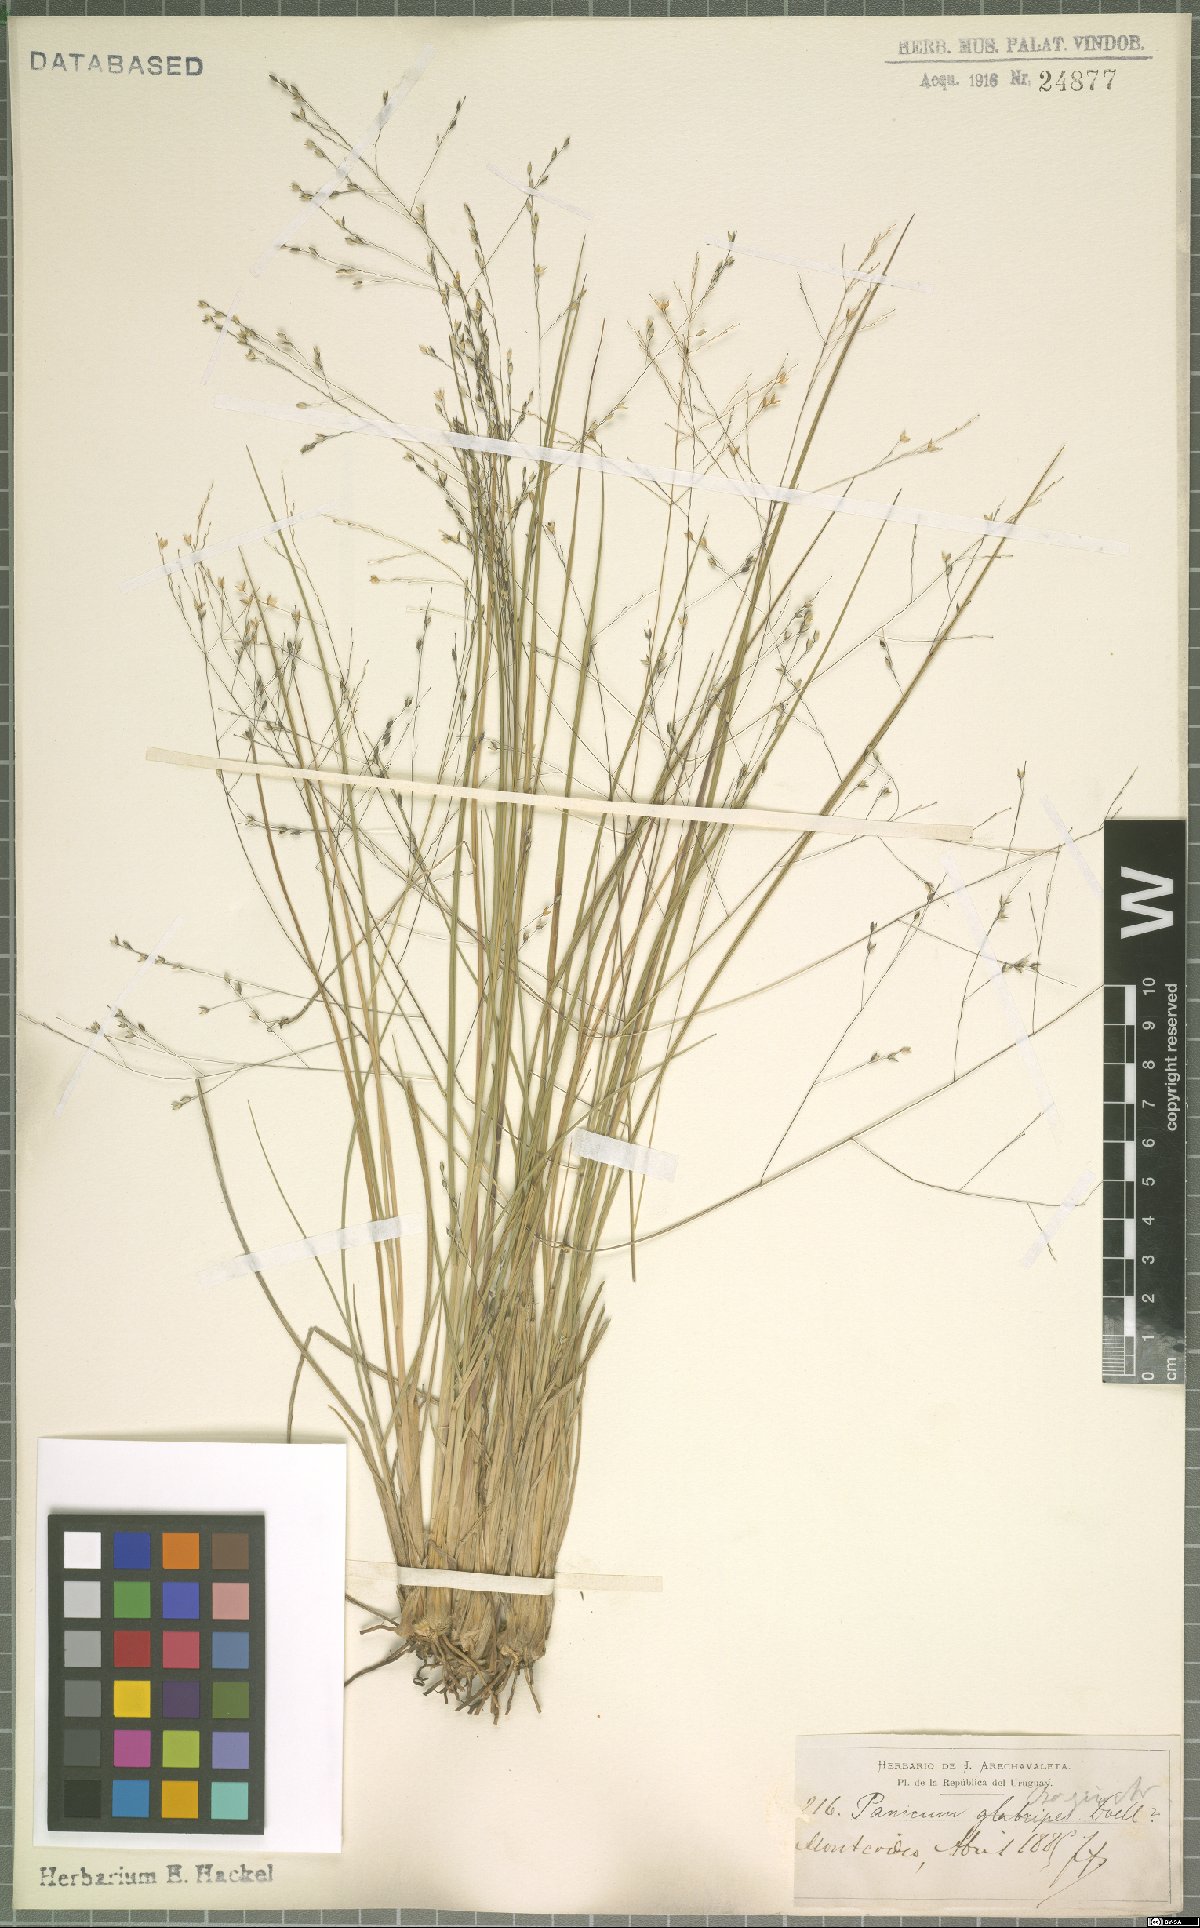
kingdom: Plantae
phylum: Tracheophyta
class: Liliopsida
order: Poales
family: Poaceae
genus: Panicum
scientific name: Panicum bergii
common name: Berg's panicgrass
